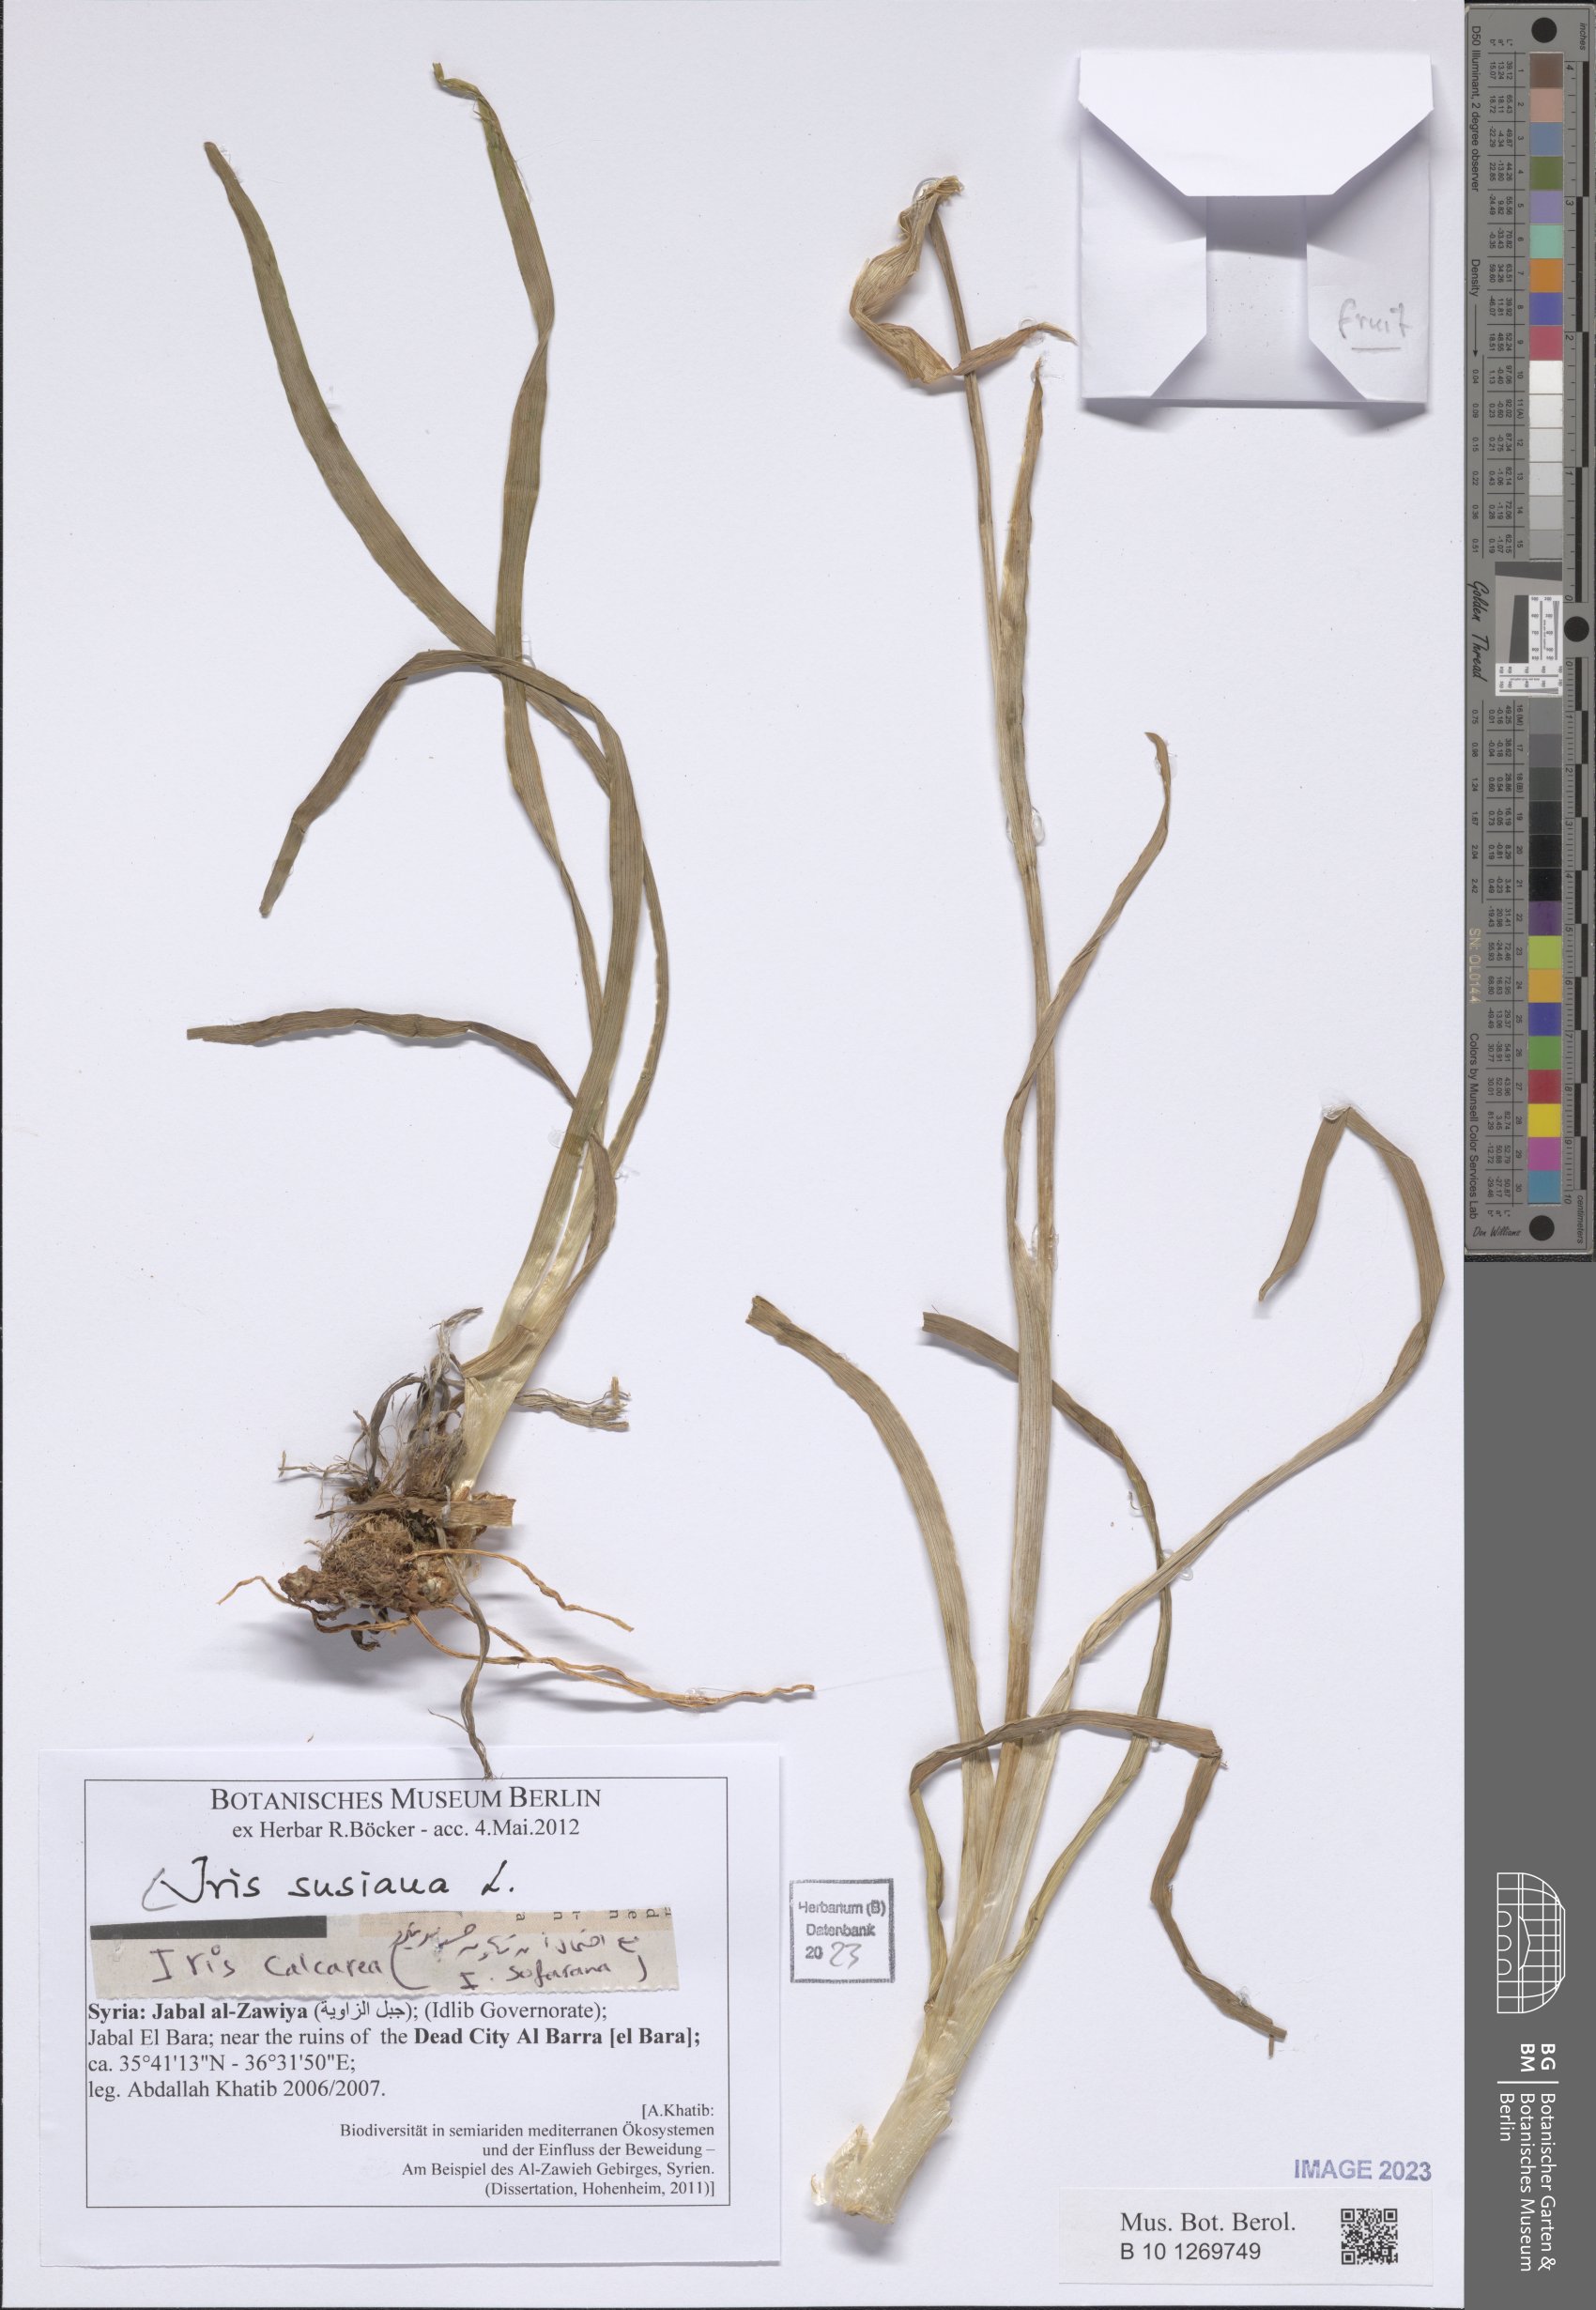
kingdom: Plantae
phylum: Tracheophyta
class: Liliopsida
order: Asparagales
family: Iridaceae
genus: Iris
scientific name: Iris susiana
